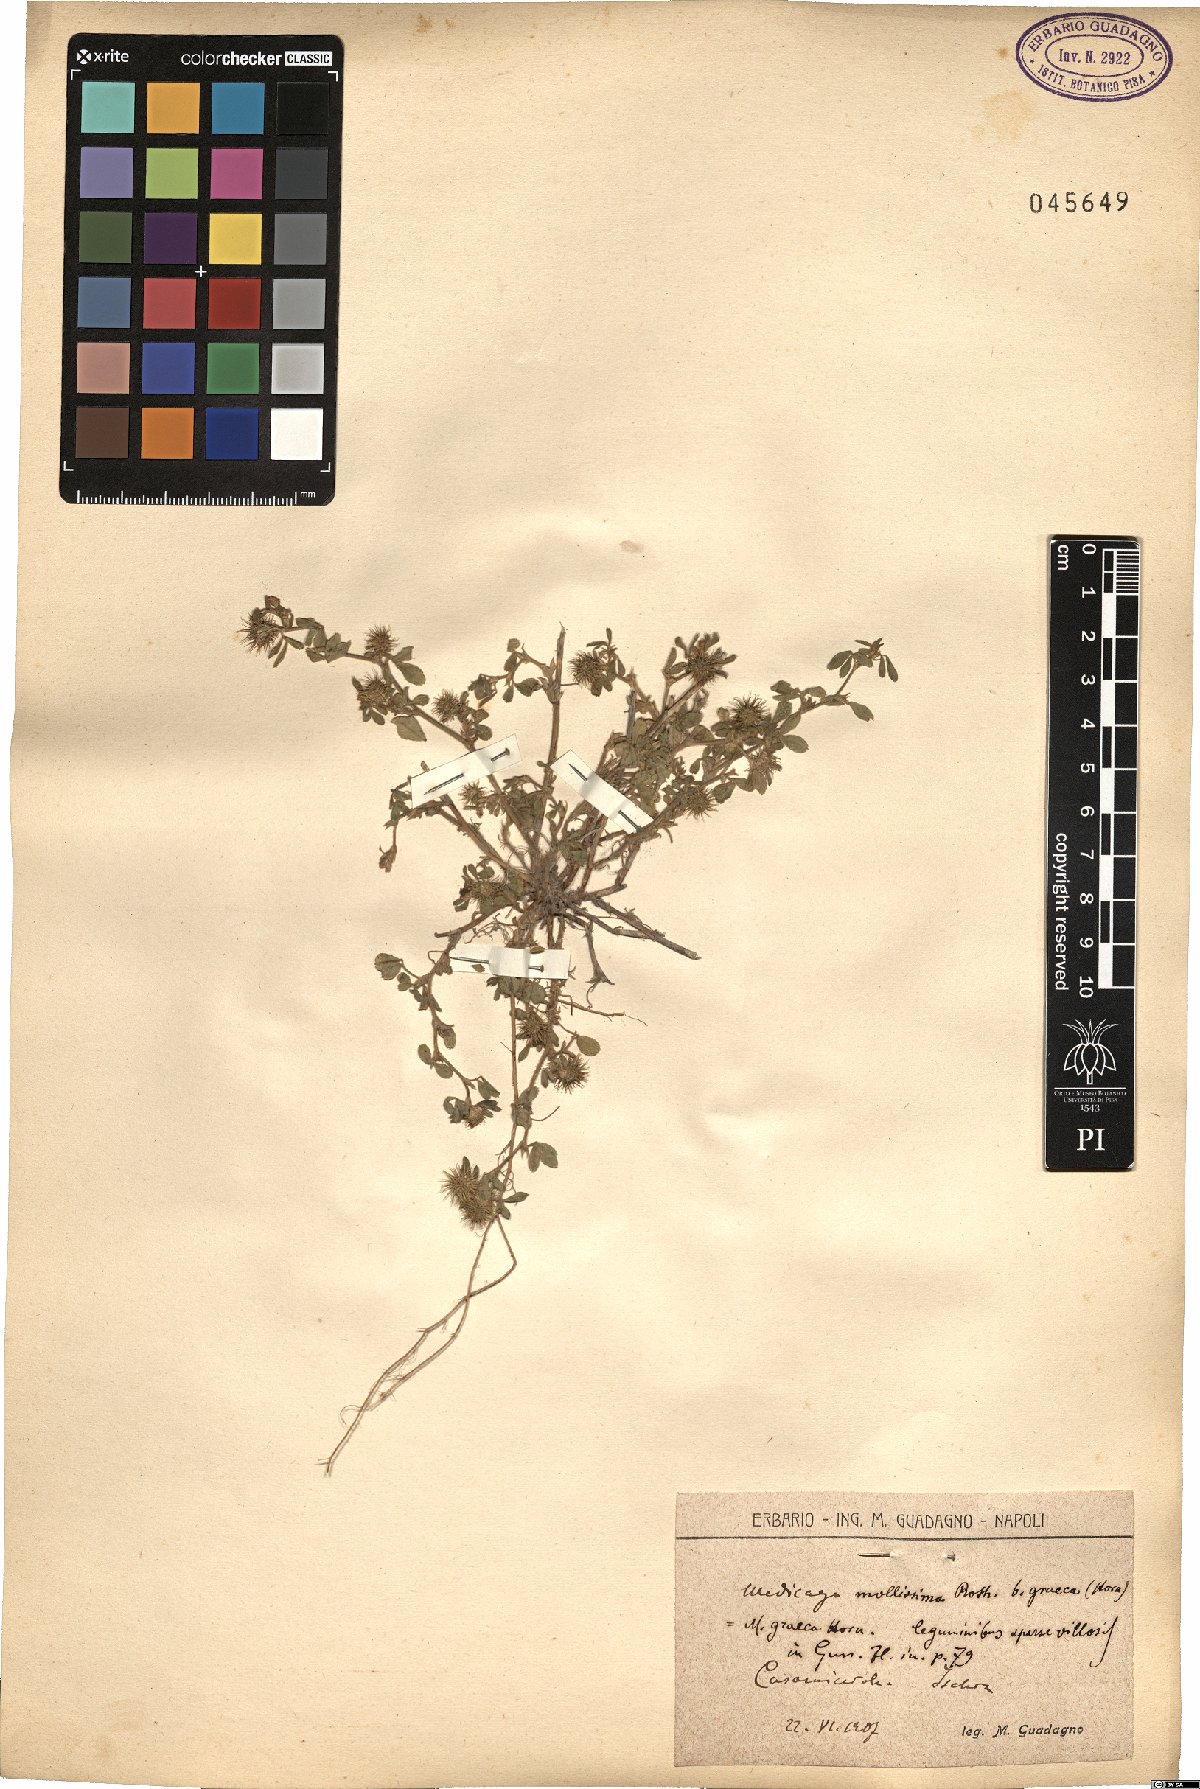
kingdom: Plantae
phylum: Tracheophyta
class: Magnoliopsida
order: Fabales
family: Fabaceae
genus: Medicago
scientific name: Medicago minima
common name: Little bur-clover
